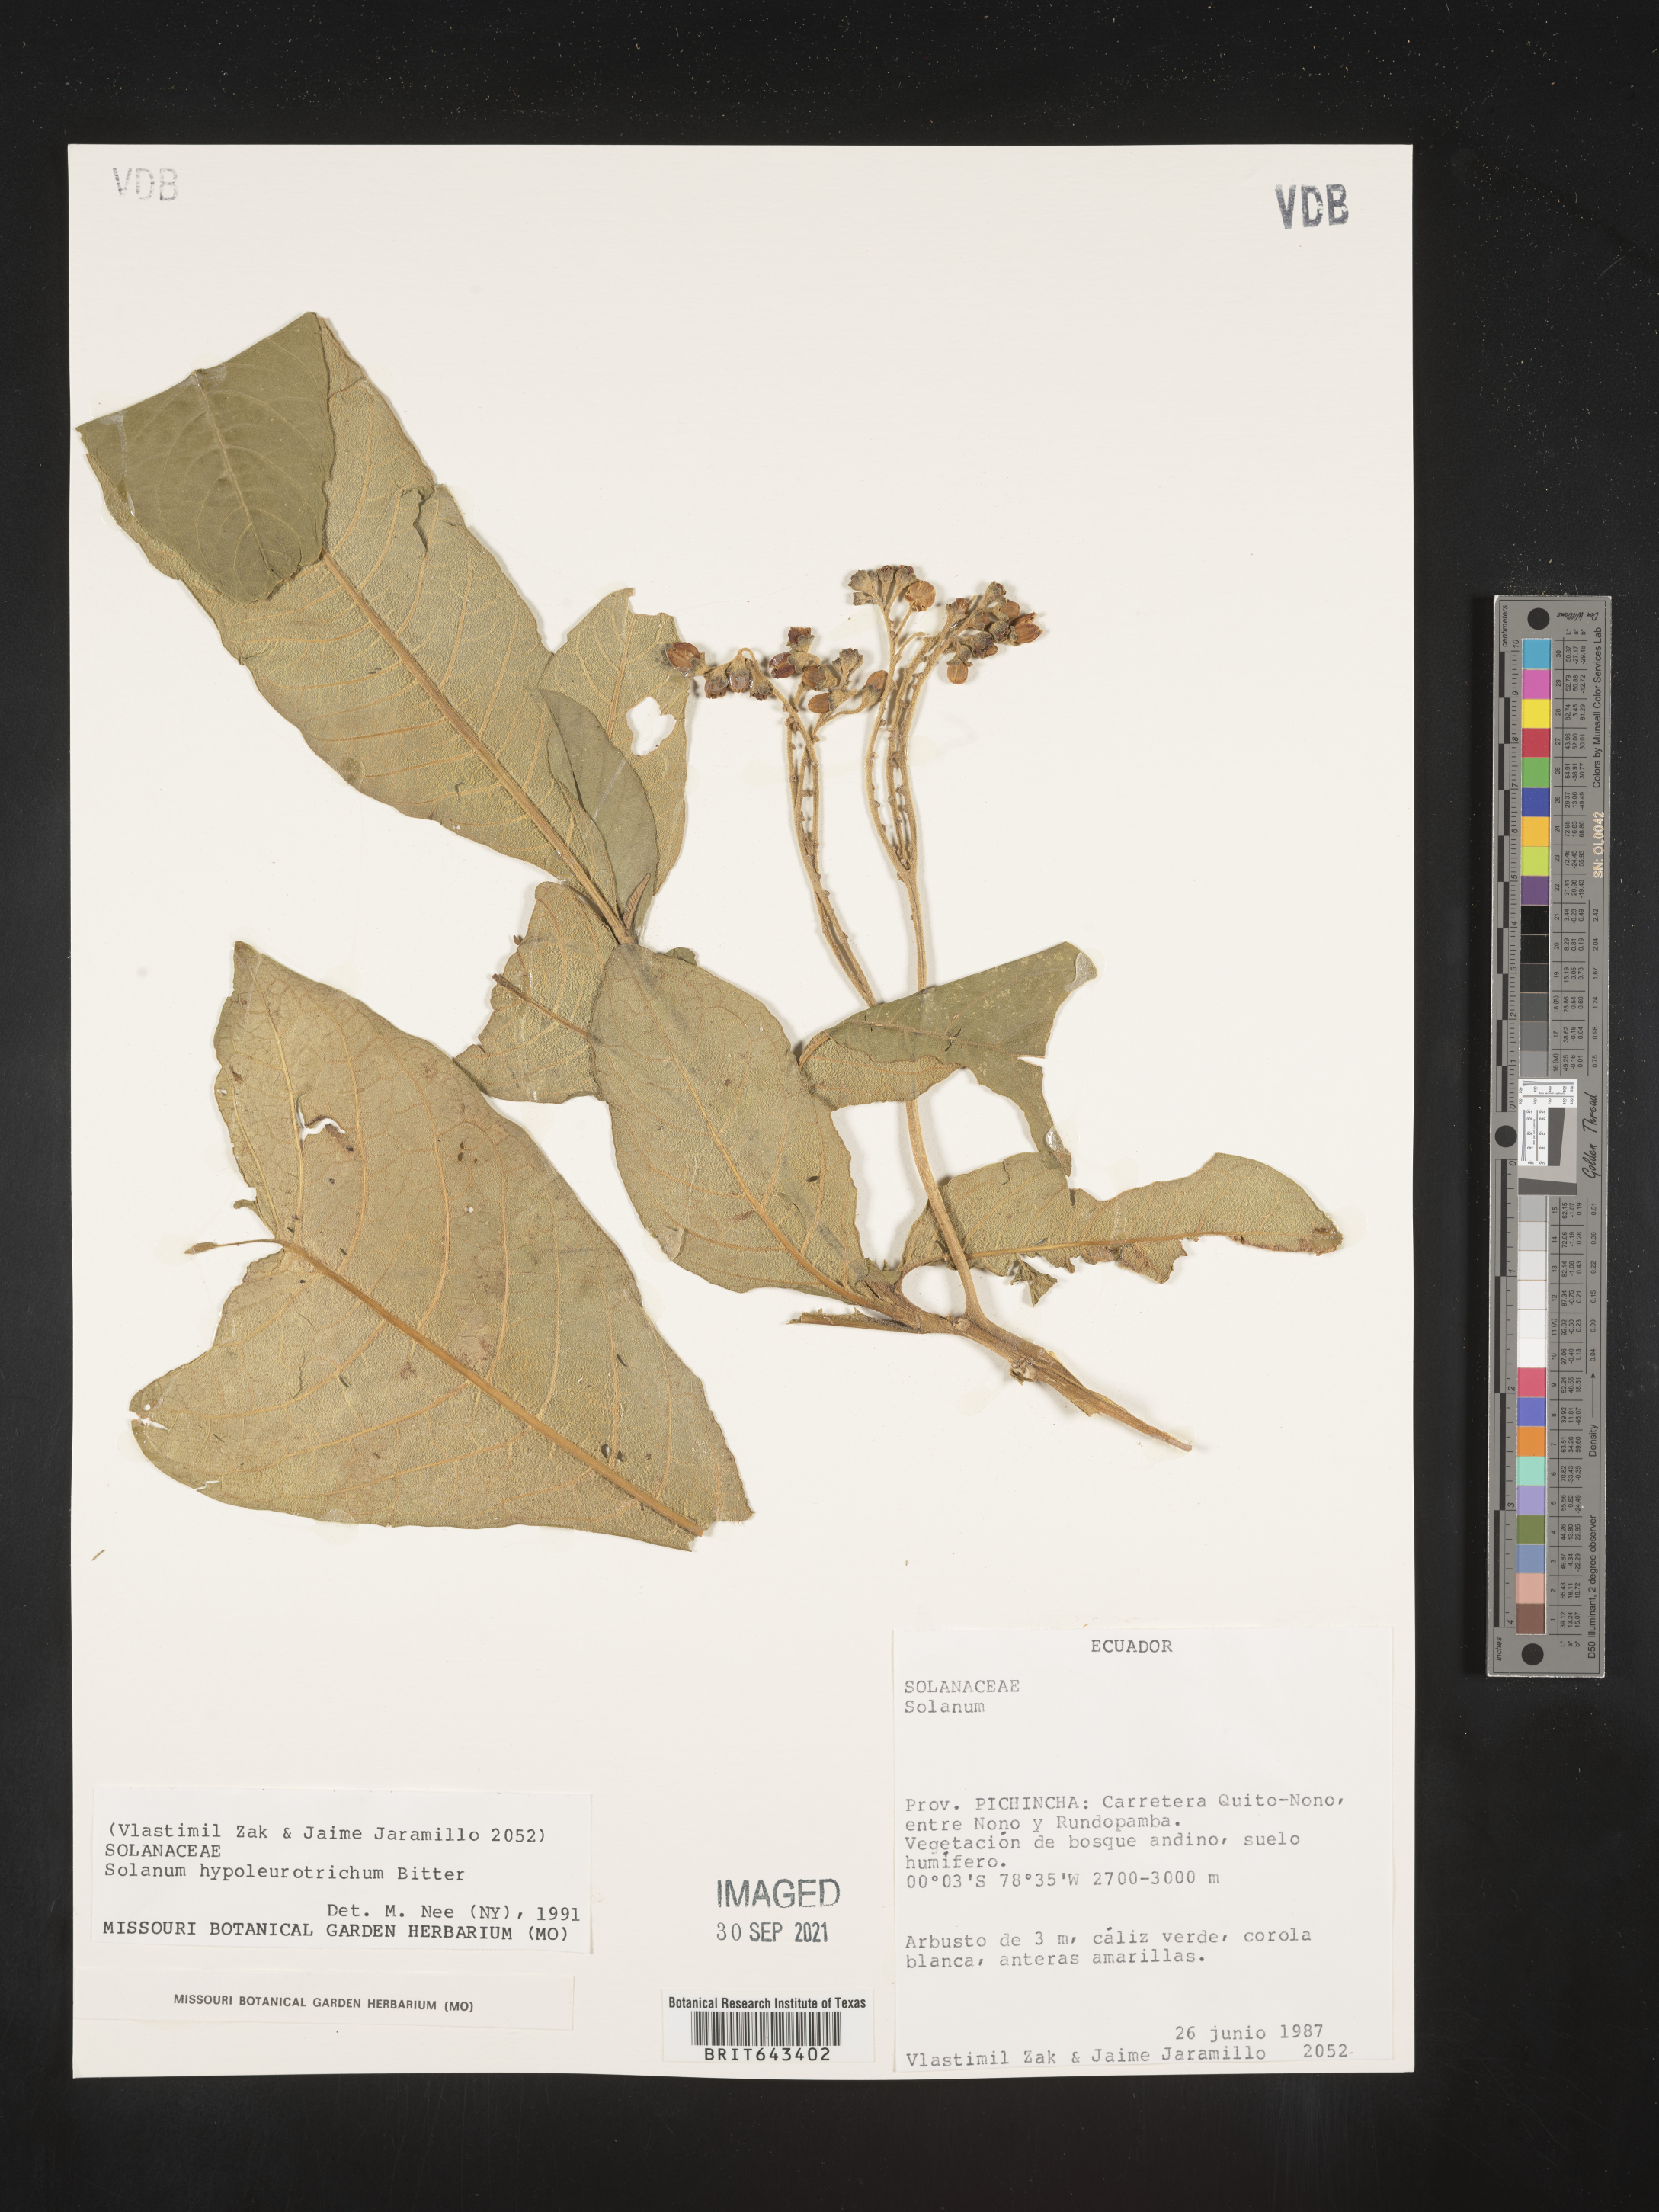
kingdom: Plantae
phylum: Tracheophyta
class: Magnoliopsida
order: Solanales
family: Solanaceae
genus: Solanum
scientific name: Solanum
